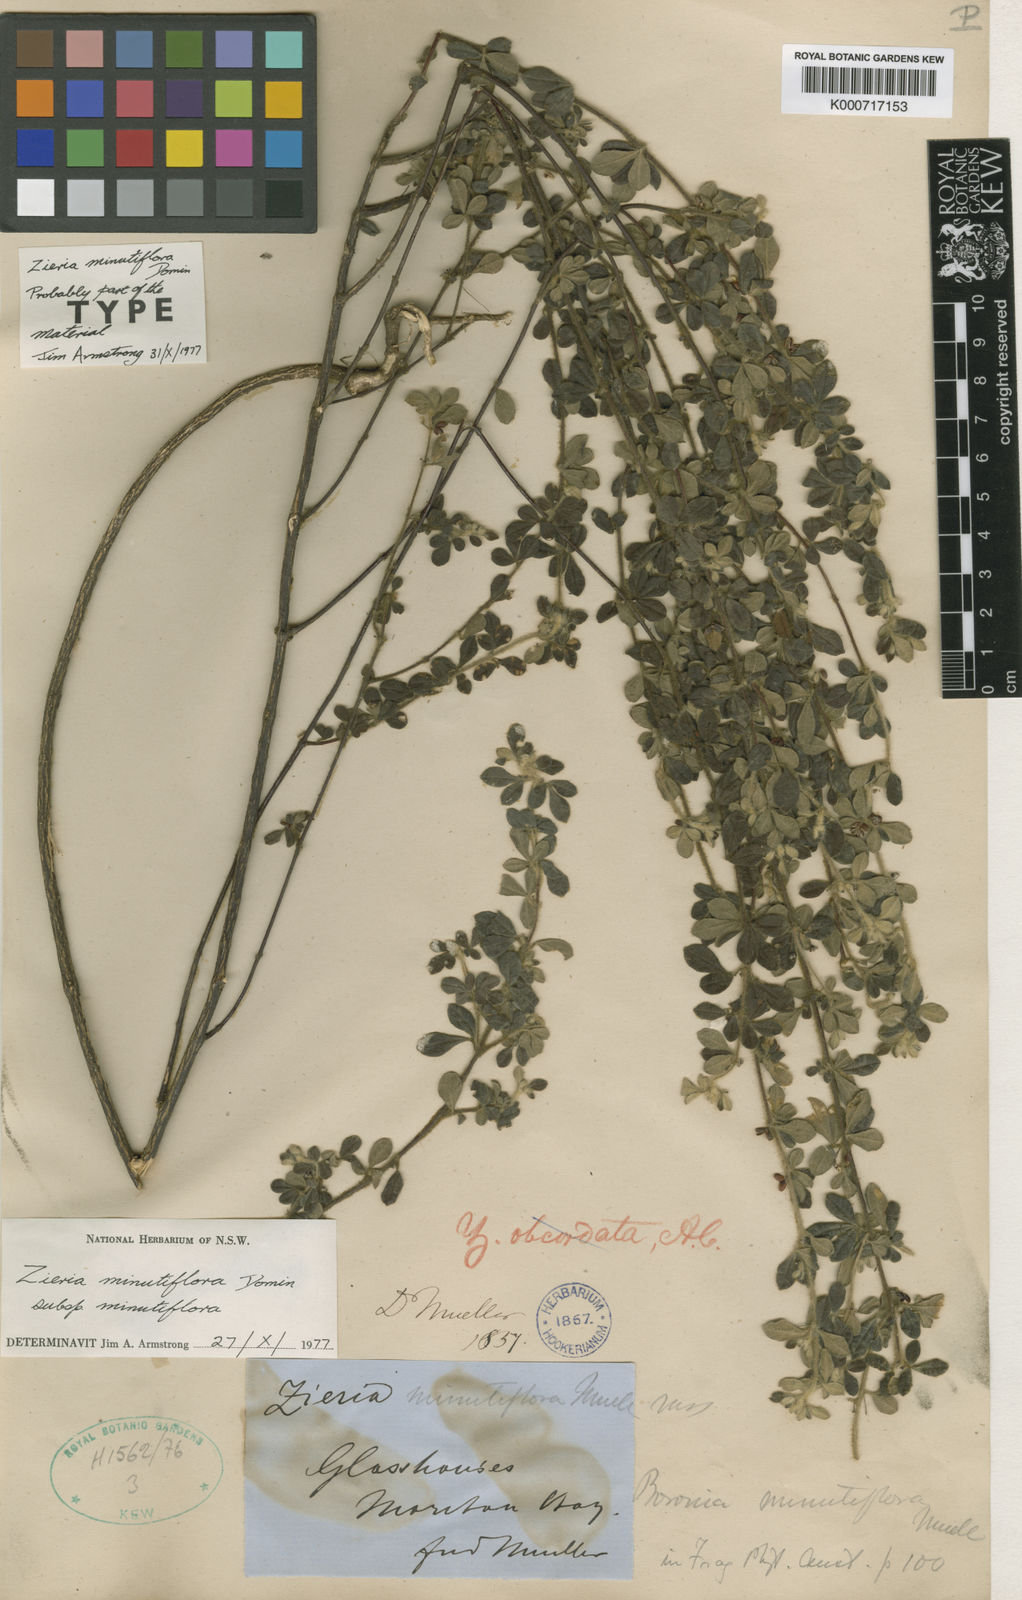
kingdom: Plantae
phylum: Tracheophyta
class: Magnoliopsida
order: Sapindales
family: Rutaceae
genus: Zieria
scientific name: Zieria minutiflora
